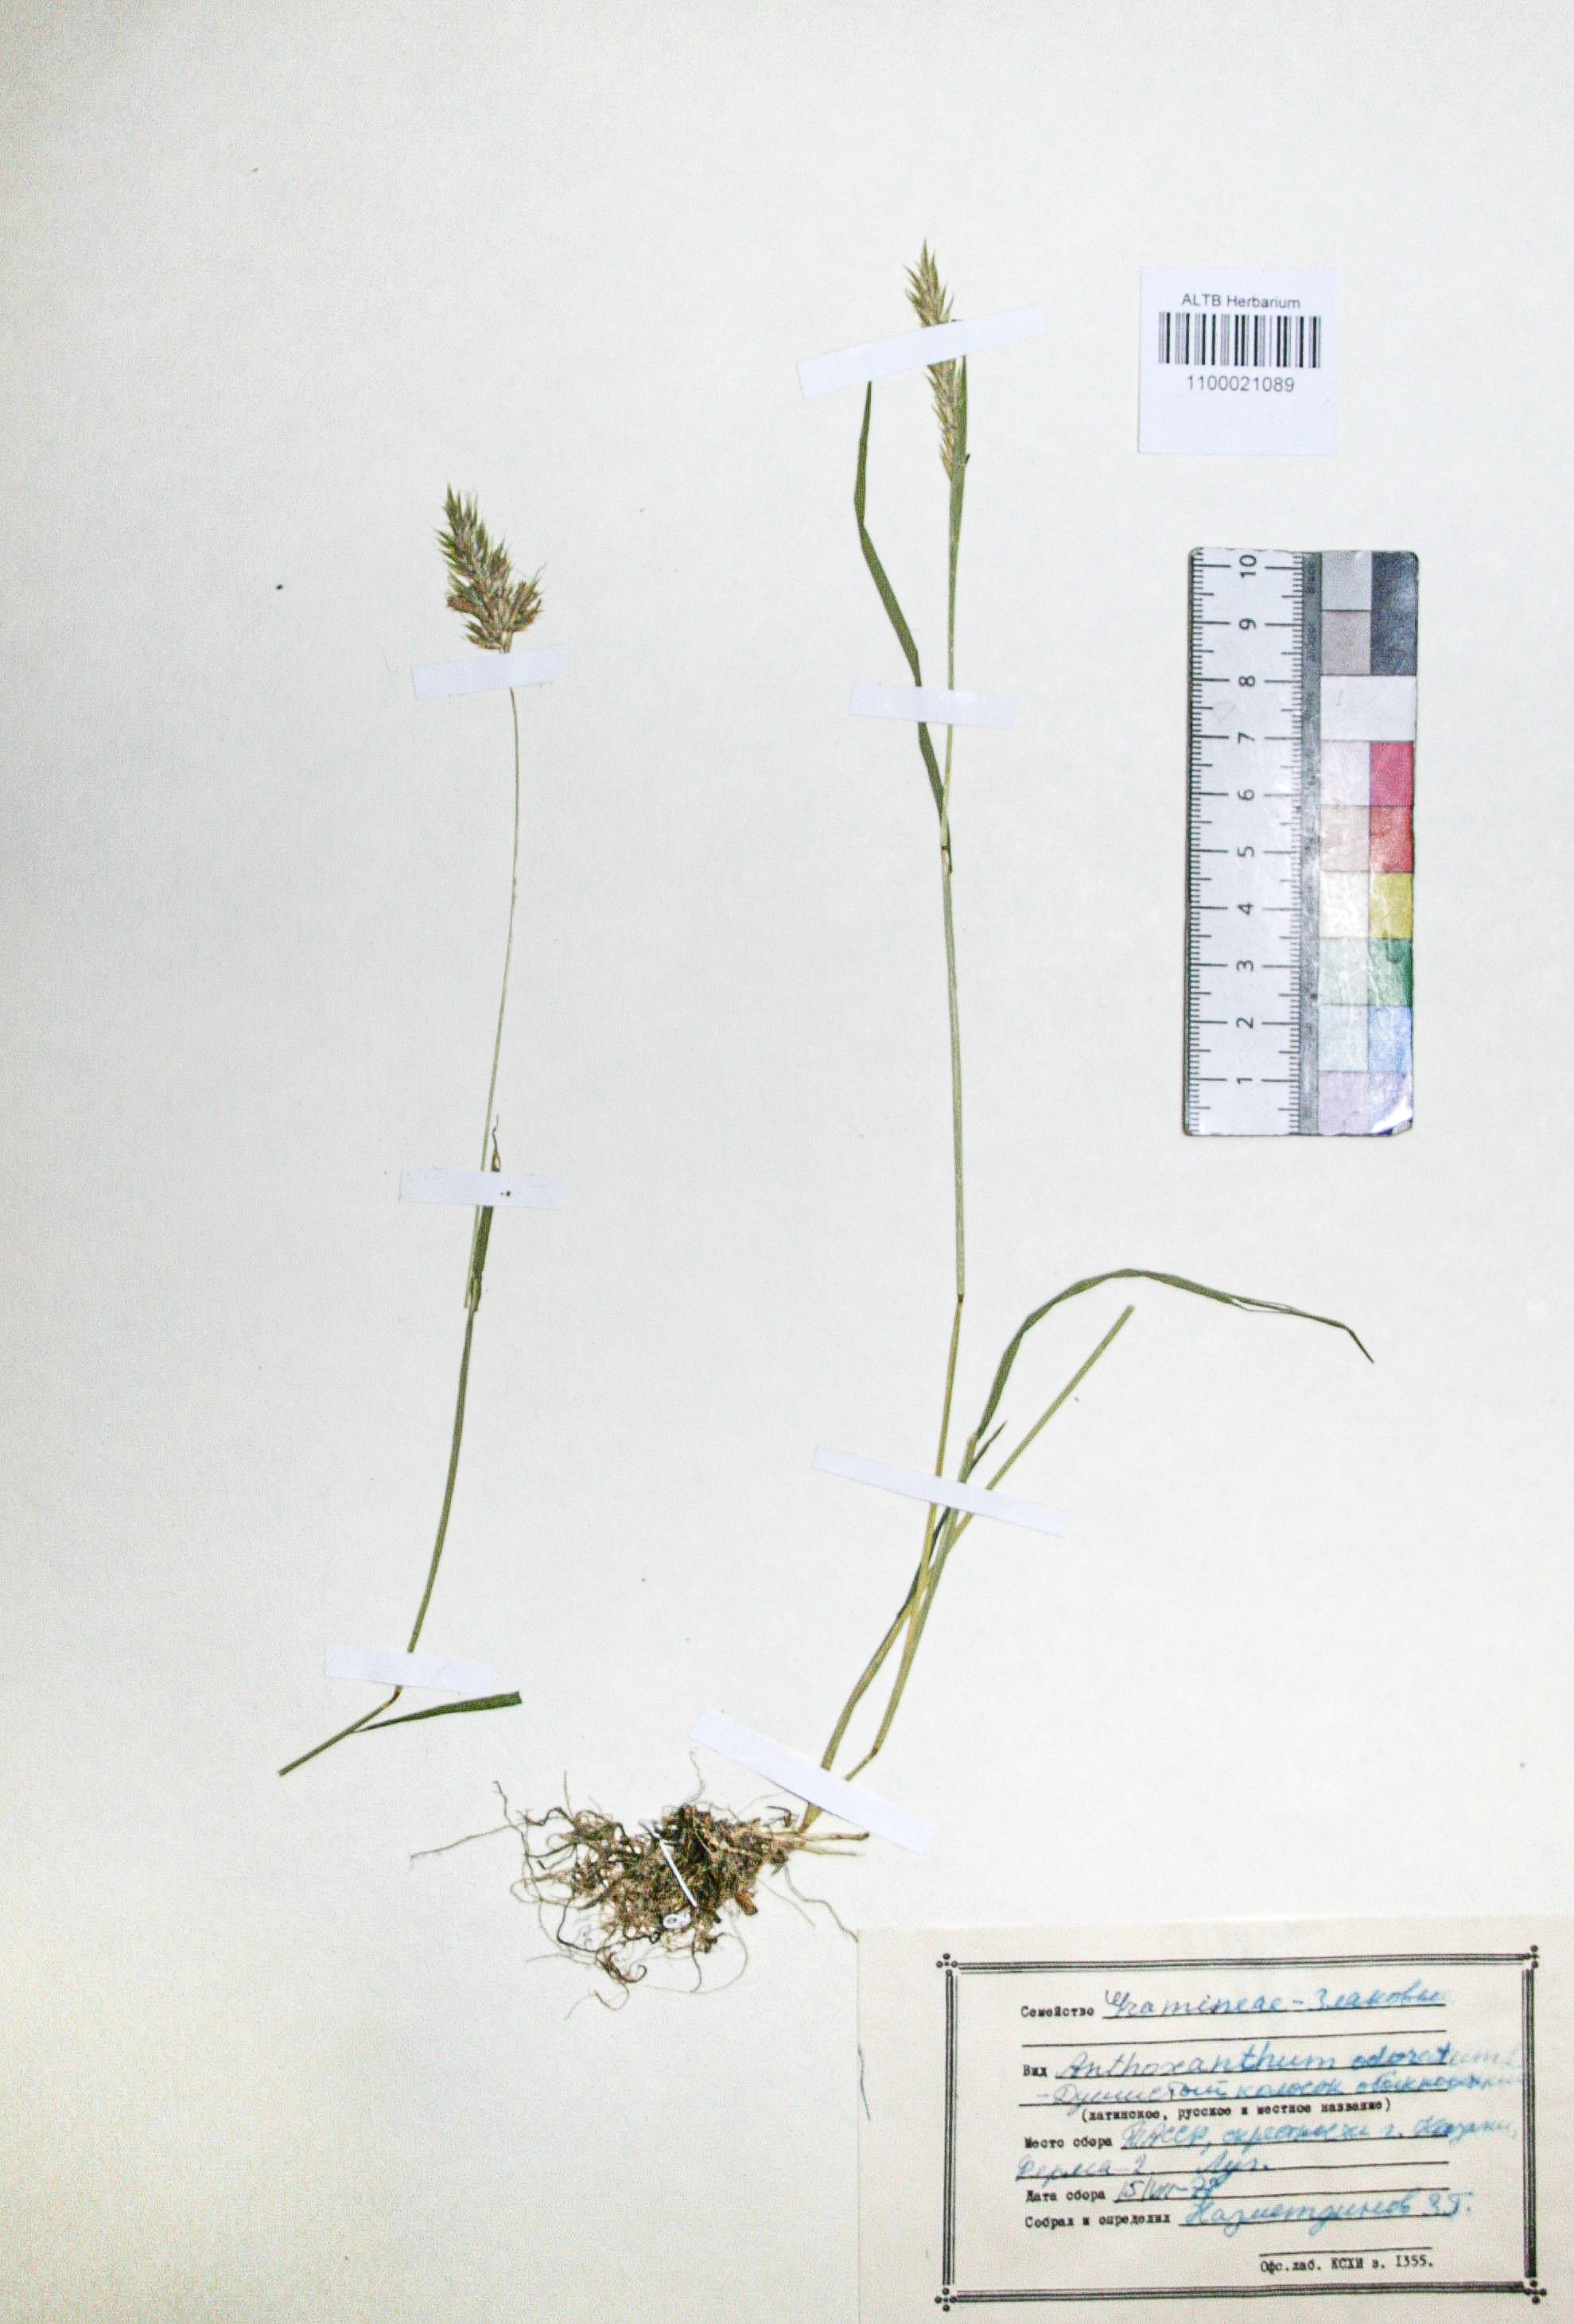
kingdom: Plantae
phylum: Tracheophyta
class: Liliopsida
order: Poales
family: Poaceae
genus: Anthoxanthum
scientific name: Anthoxanthum odoratum
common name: Sweet vernalgrass
